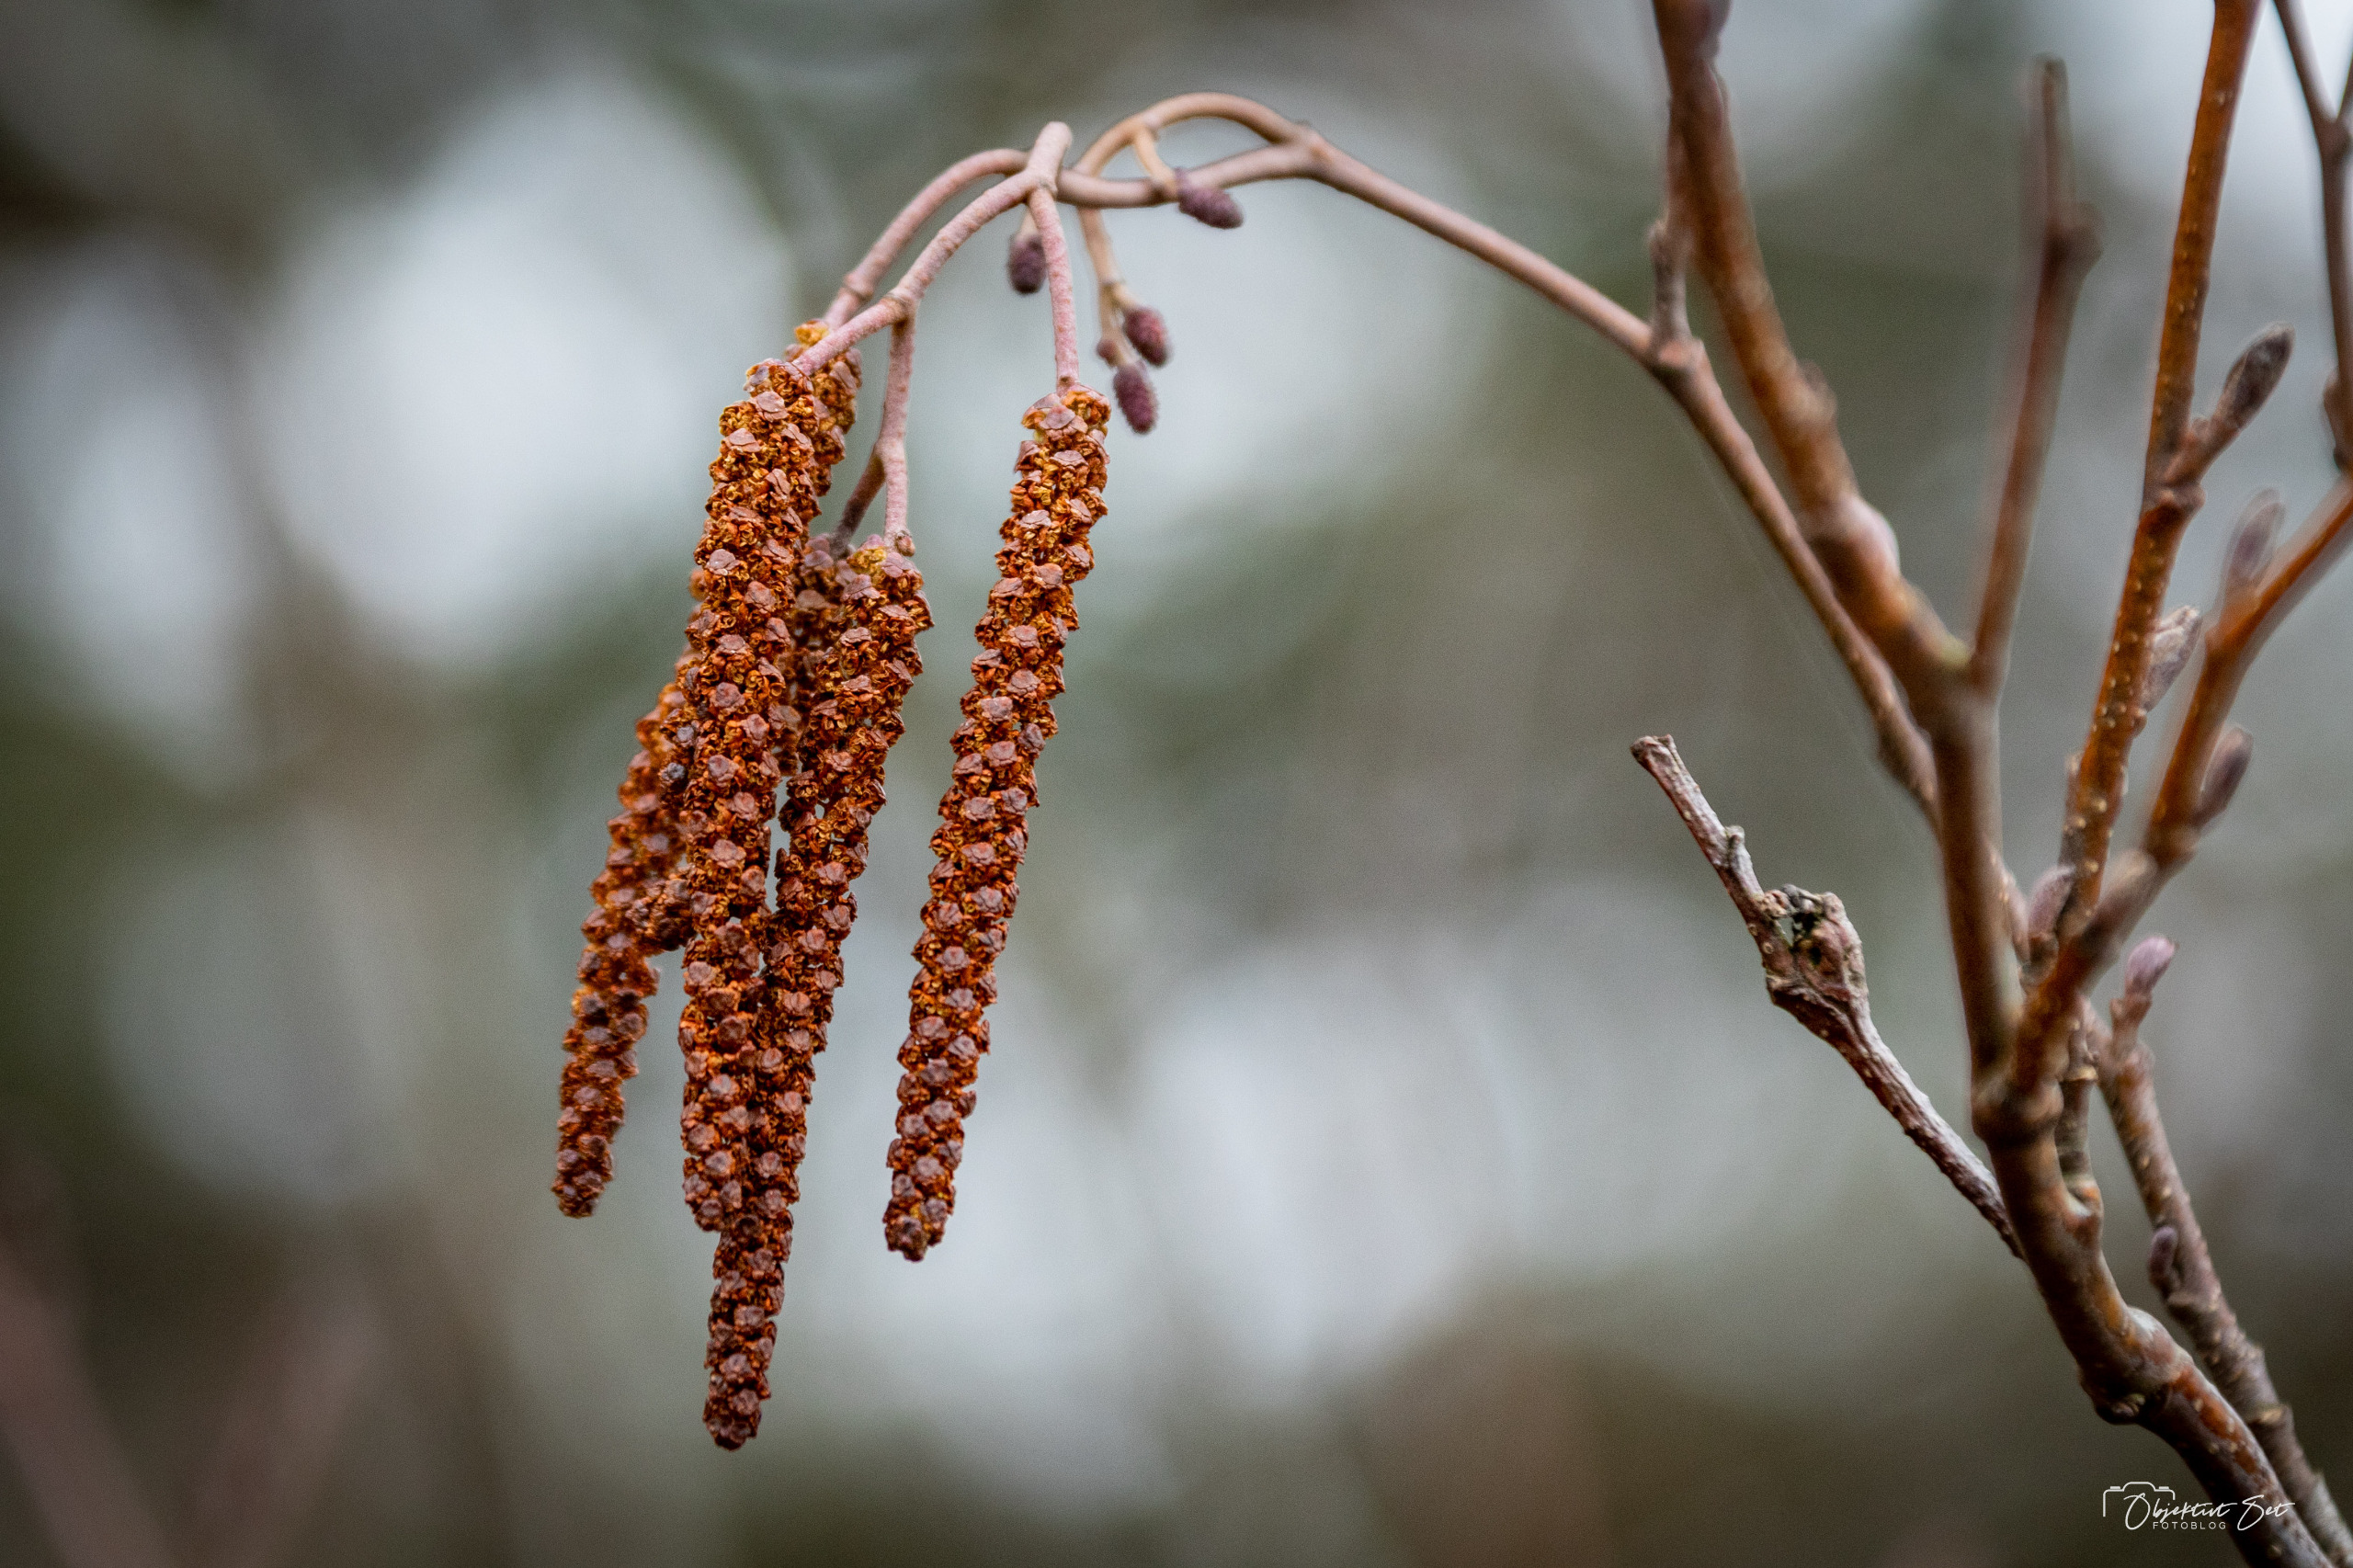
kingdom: Plantae
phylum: Tracheophyta
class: Magnoliopsida
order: Fagales
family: Betulaceae
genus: Alnus
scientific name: Alnus glutinosa
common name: Rød-el
